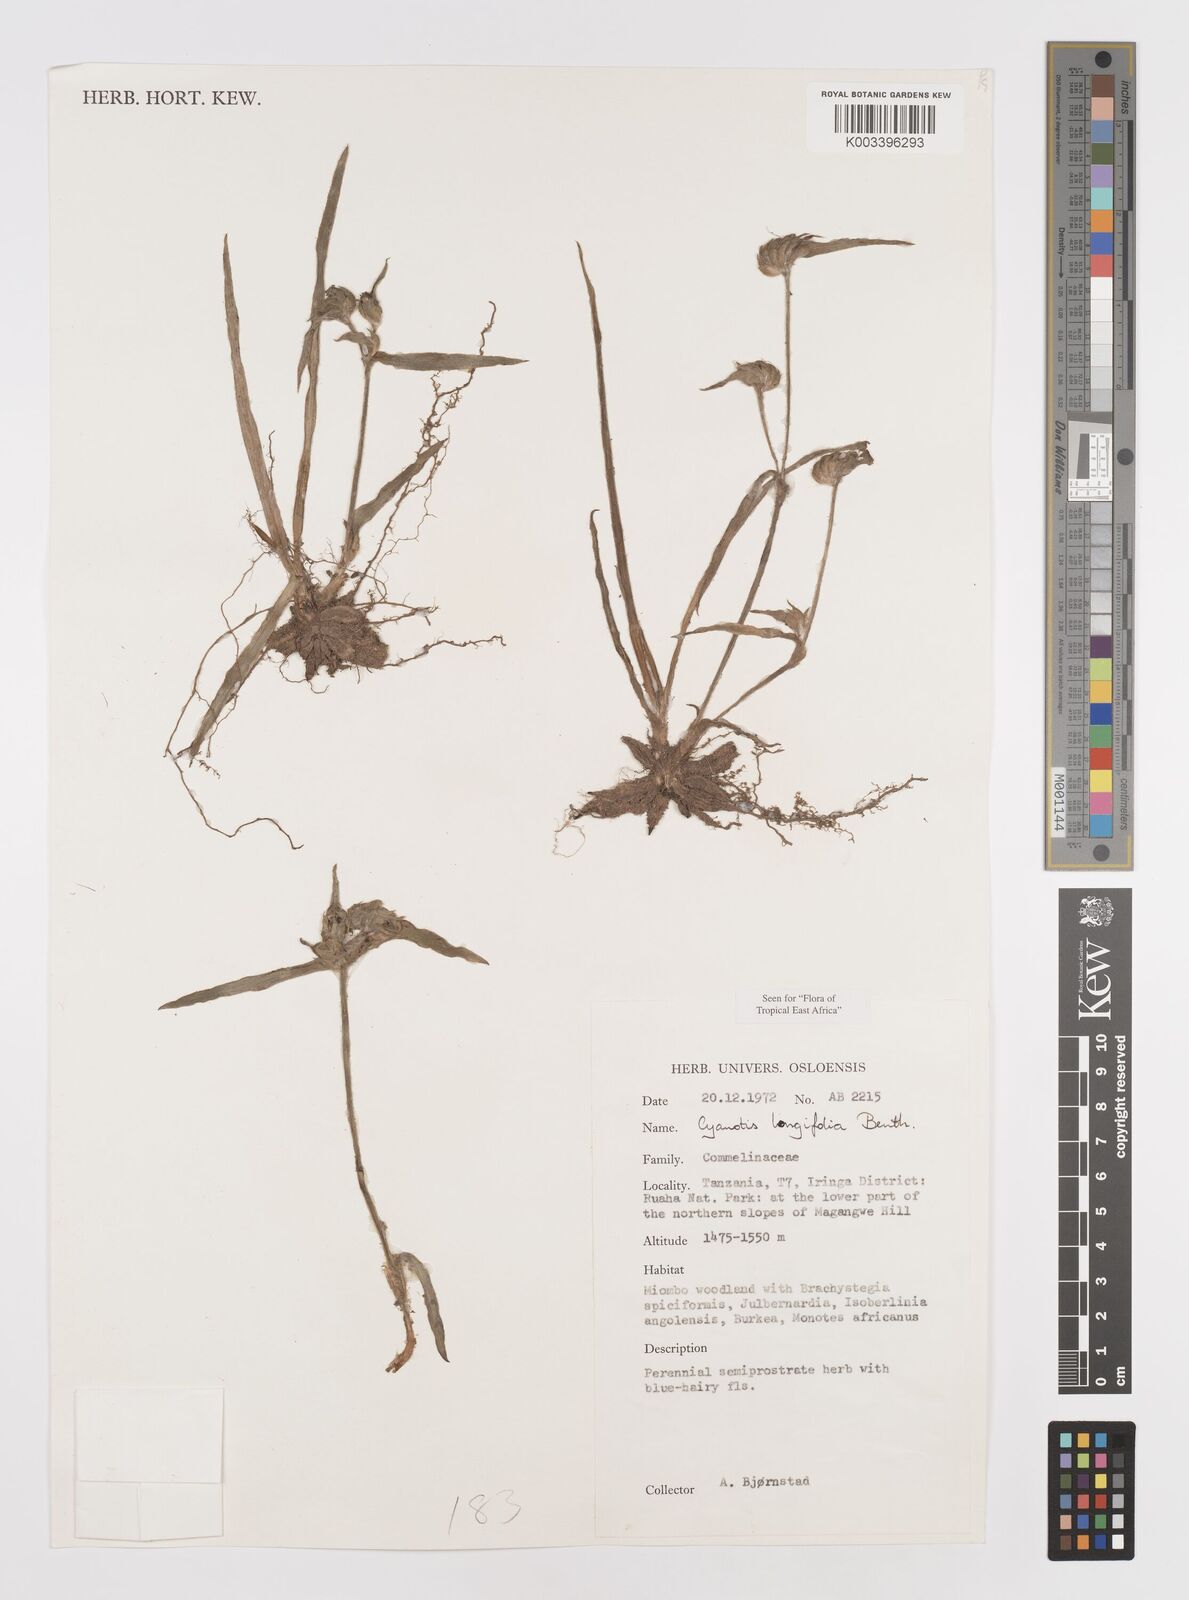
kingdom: Plantae
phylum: Tracheophyta
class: Liliopsida
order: Commelinales
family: Commelinaceae
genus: Cyanotis
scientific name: Cyanotis longifolia
